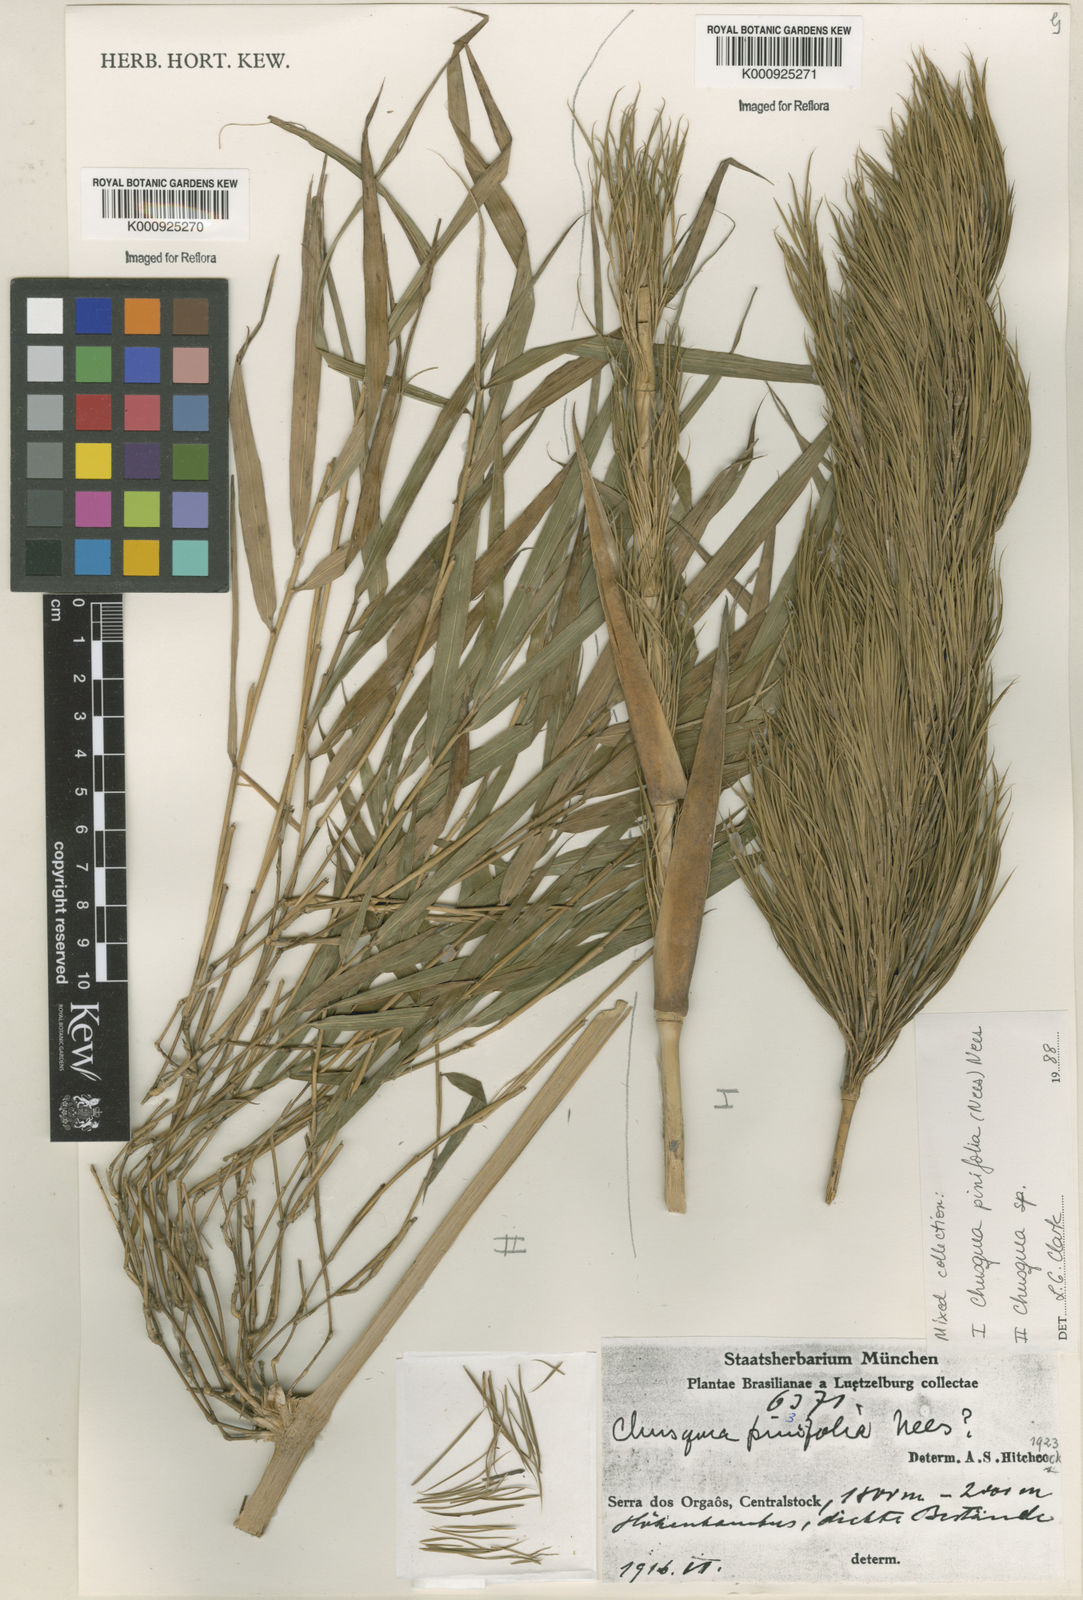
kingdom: Plantae
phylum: Tracheophyta
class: Liliopsida
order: Poales
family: Poaceae
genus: Chusquea
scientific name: Chusquea pinifolia
